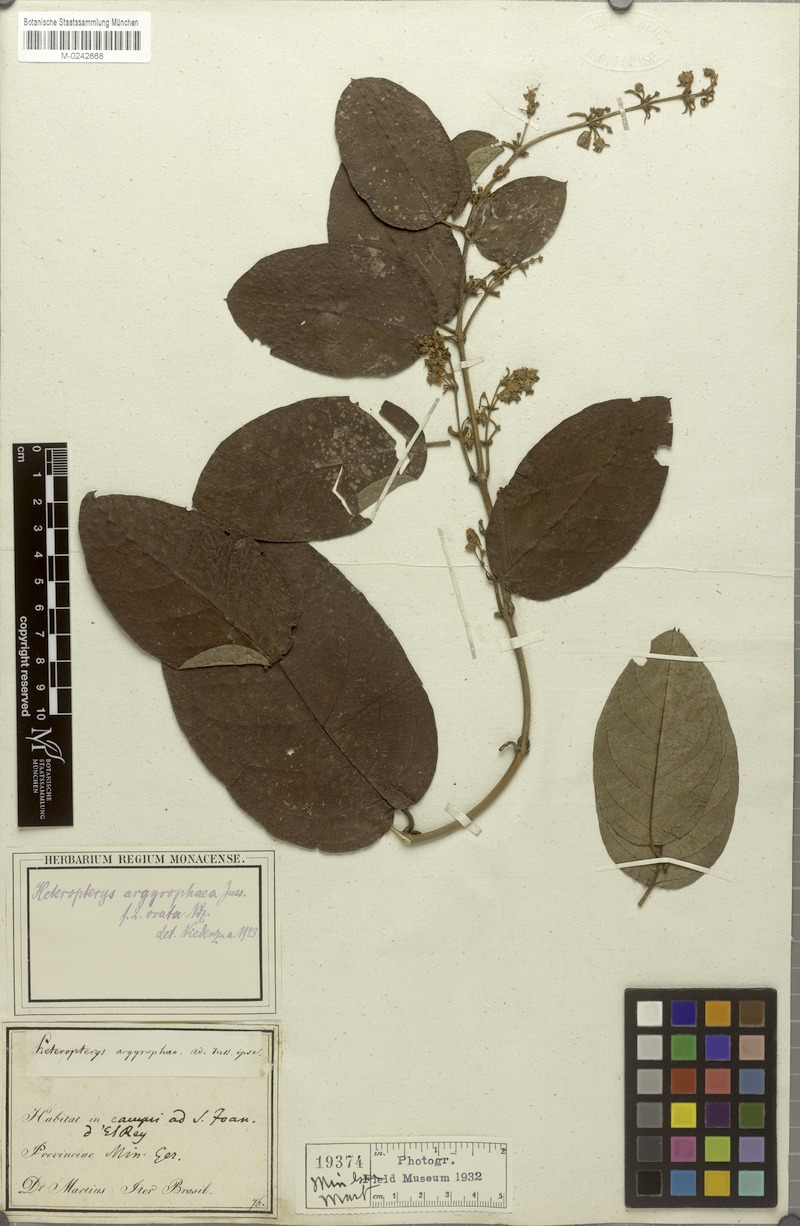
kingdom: Plantae
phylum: Tracheophyta
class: Magnoliopsida
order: Malpighiales
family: Malpighiaceae
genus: Heteropterys
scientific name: Heteropterys argyrophaea
